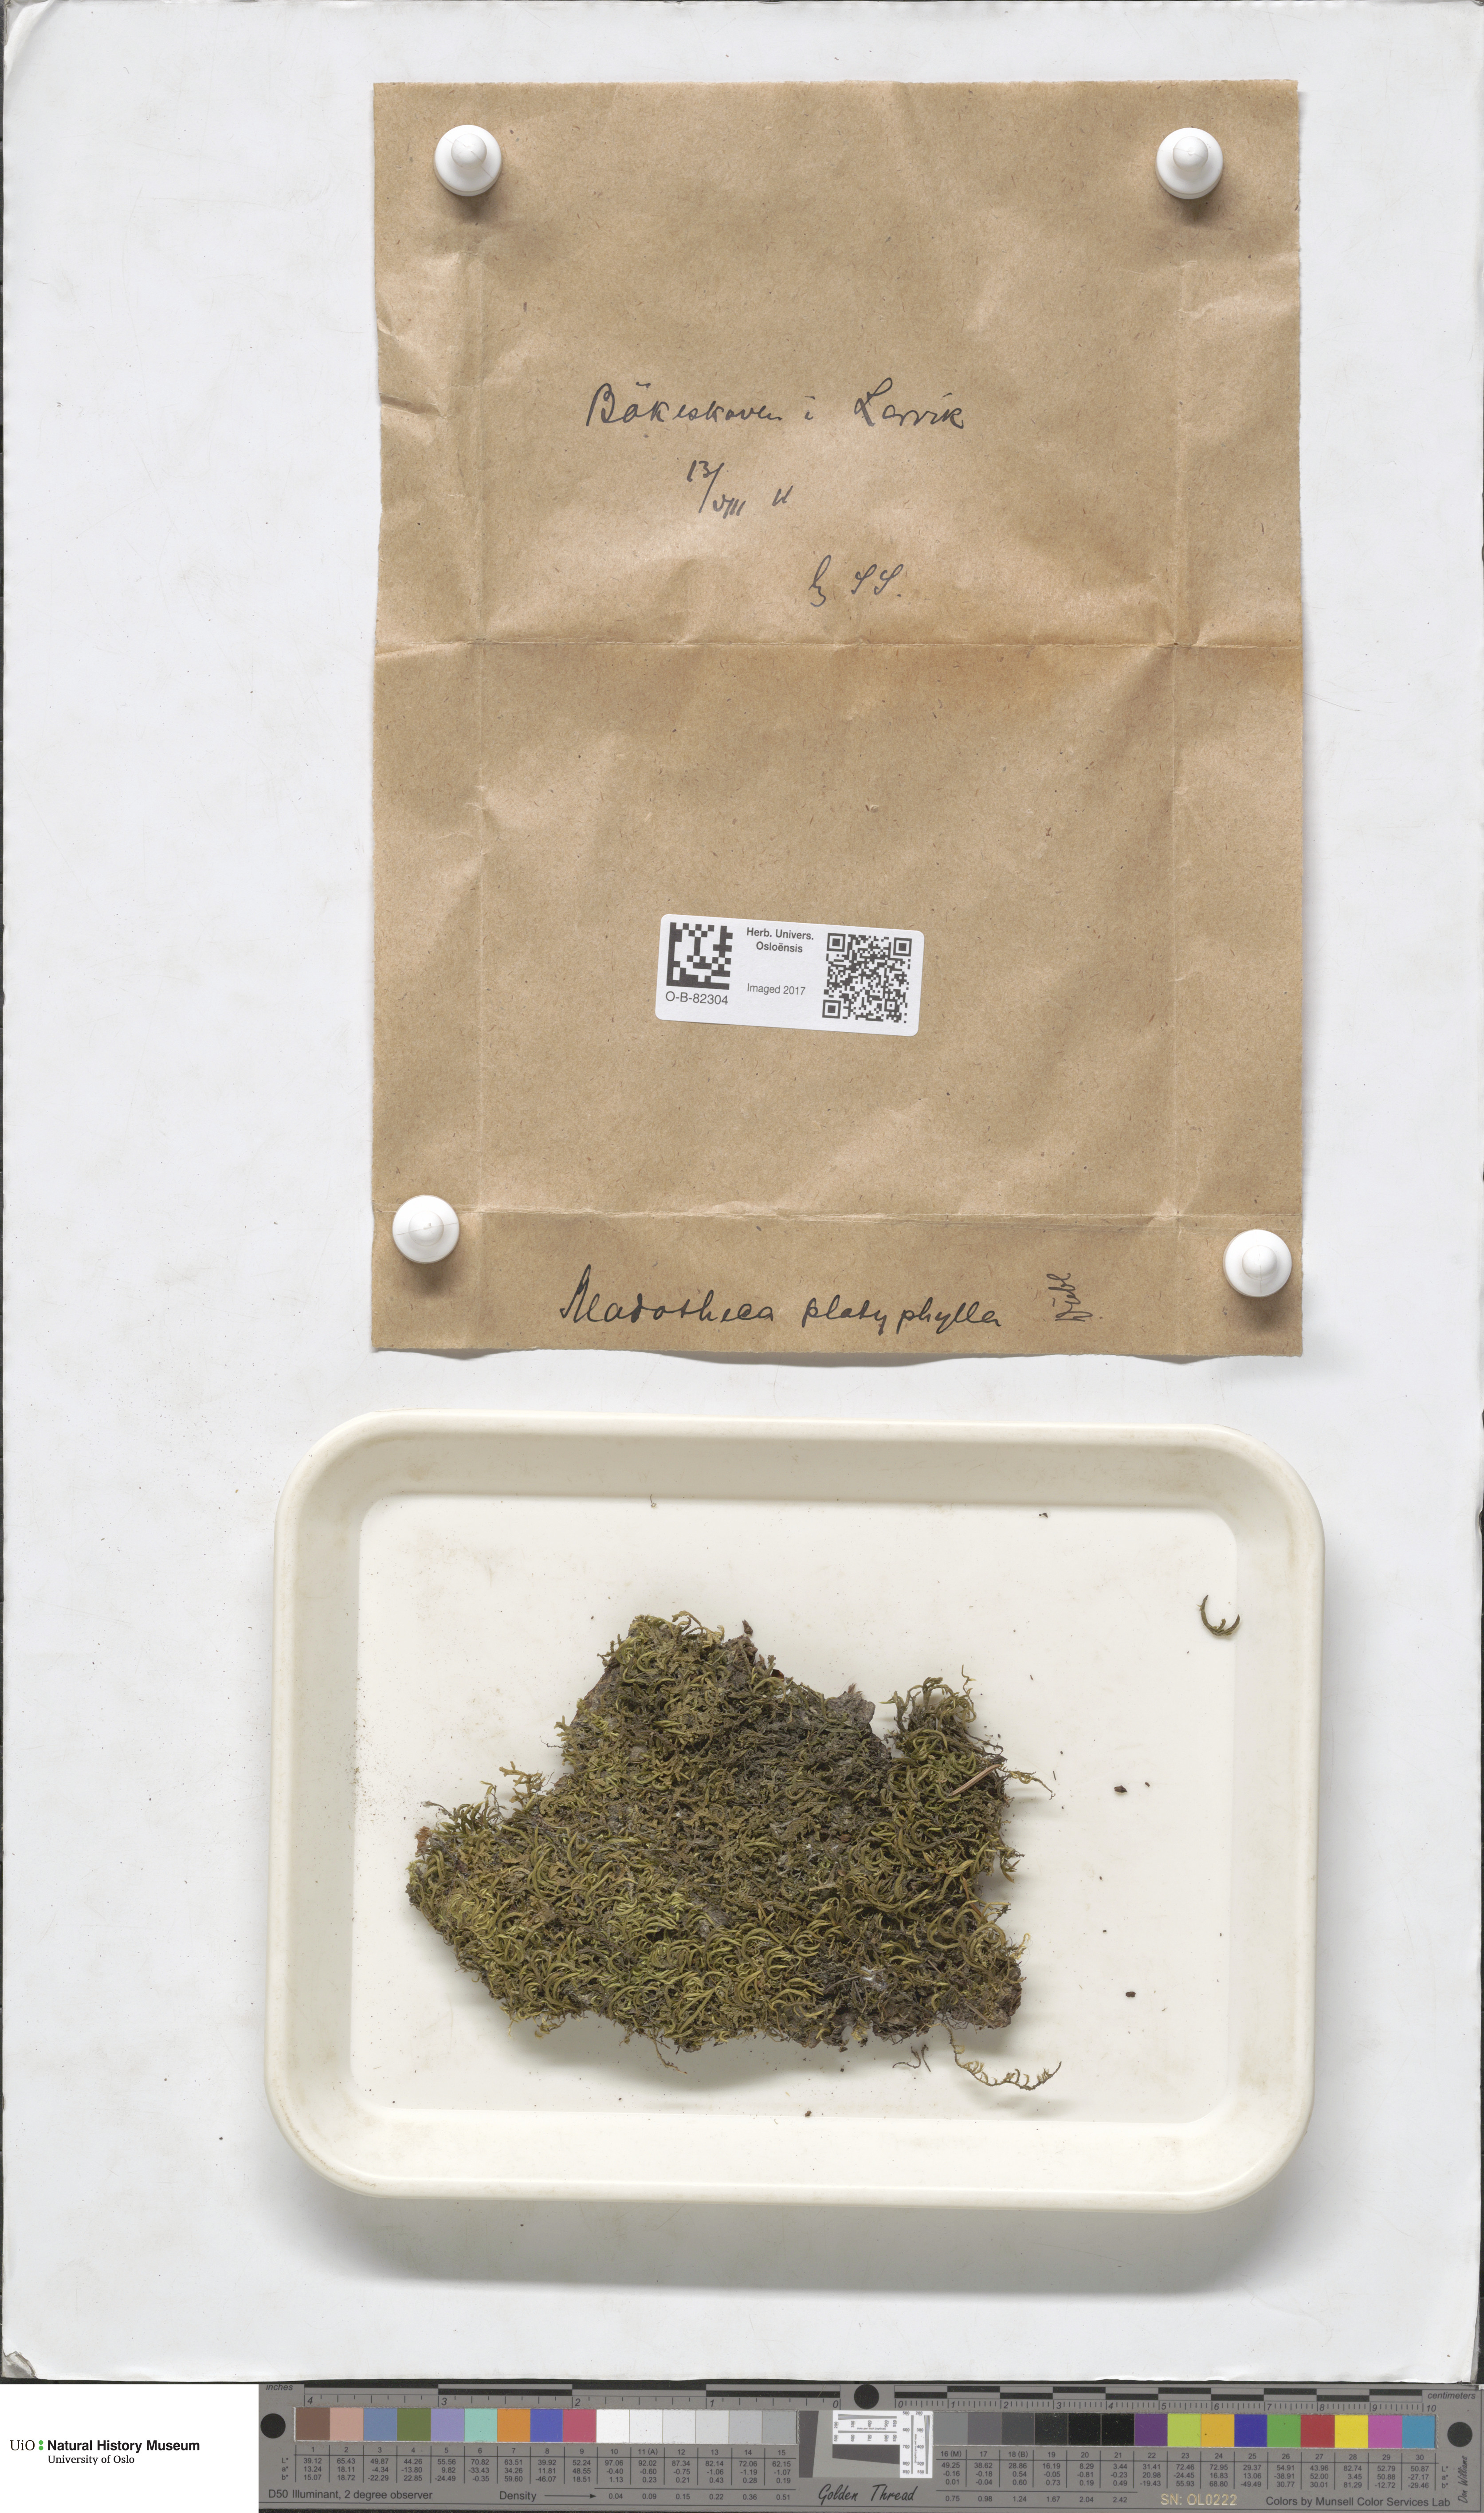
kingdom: Plantae
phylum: Marchantiophyta
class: Jungermanniopsida
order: Porellales
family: Porellaceae
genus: Porella
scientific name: Porella platyphylla
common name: Wall scalewort
